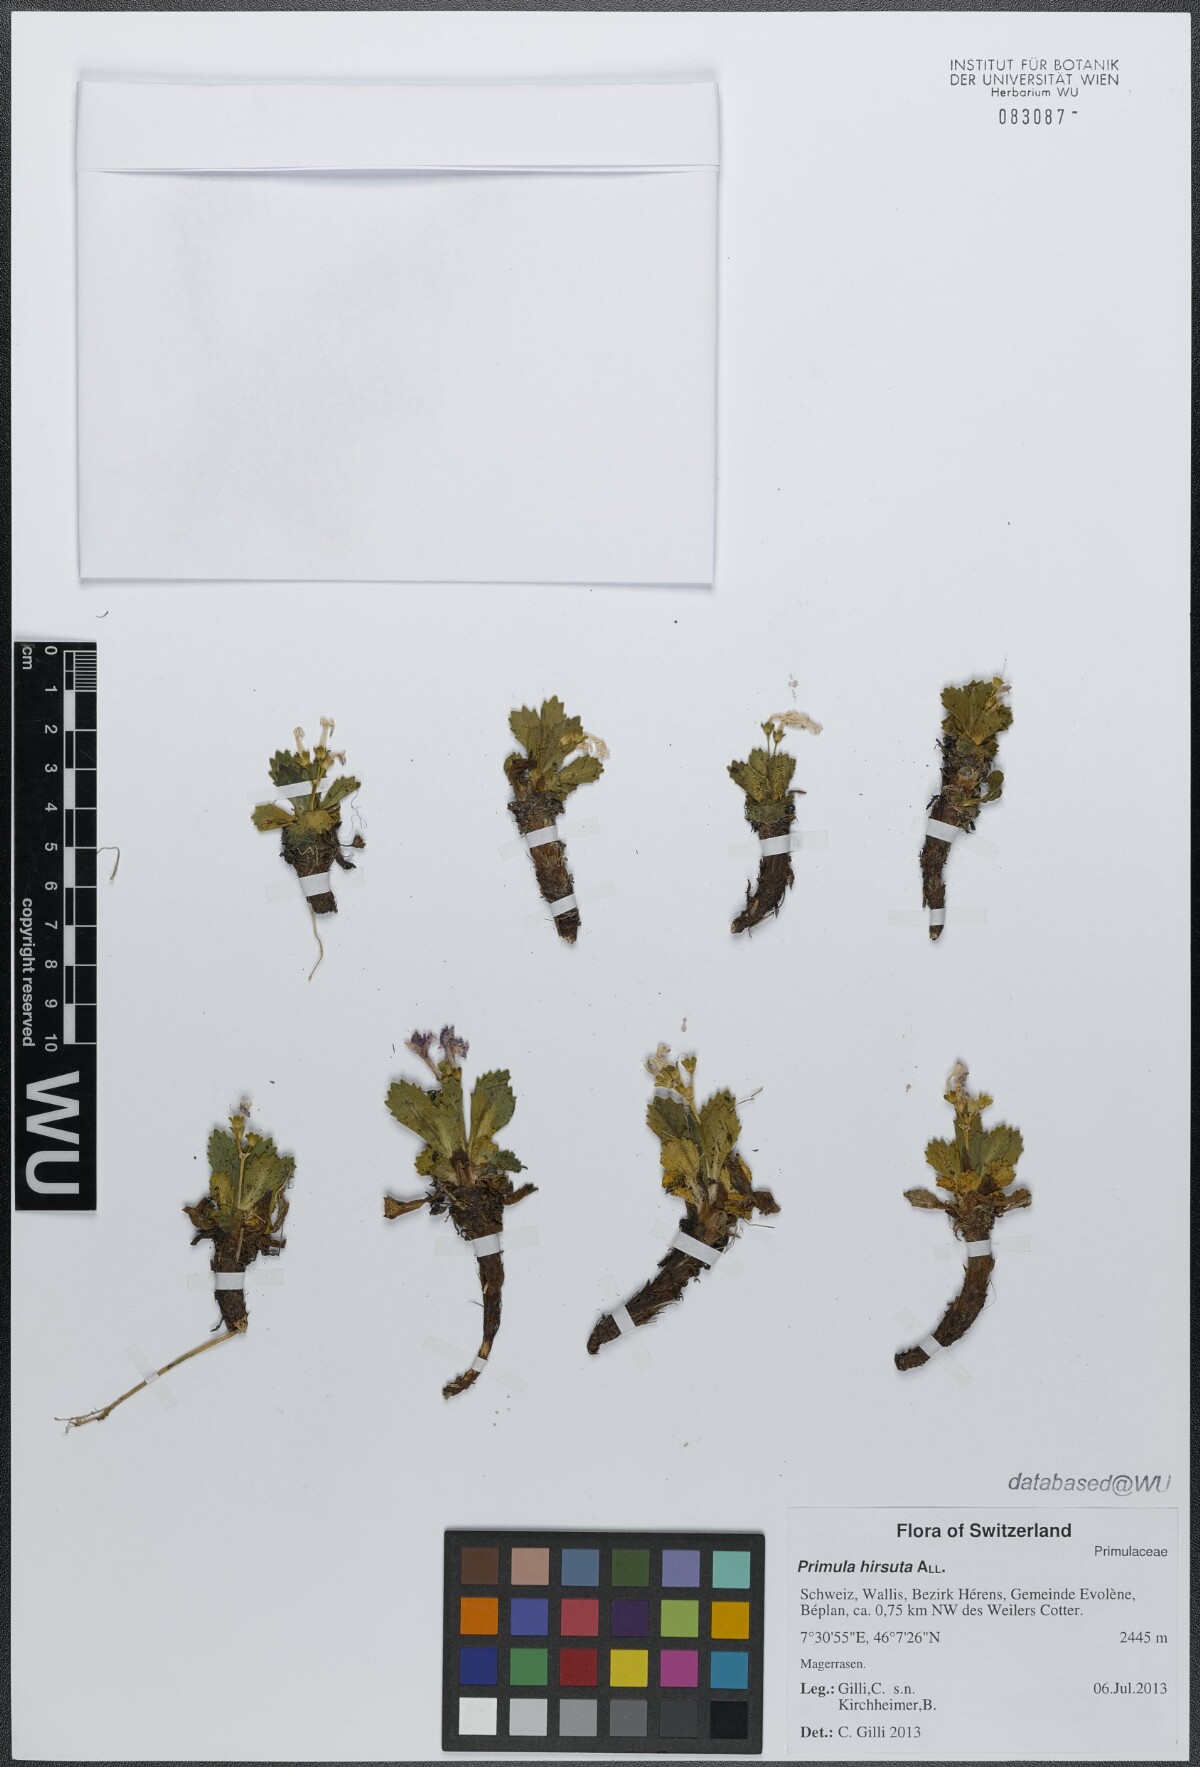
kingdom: Plantae
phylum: Tracheophyta
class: Magnoliopsida
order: Ericales
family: Primulaceae
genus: Primula
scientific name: Primula hirsuta
